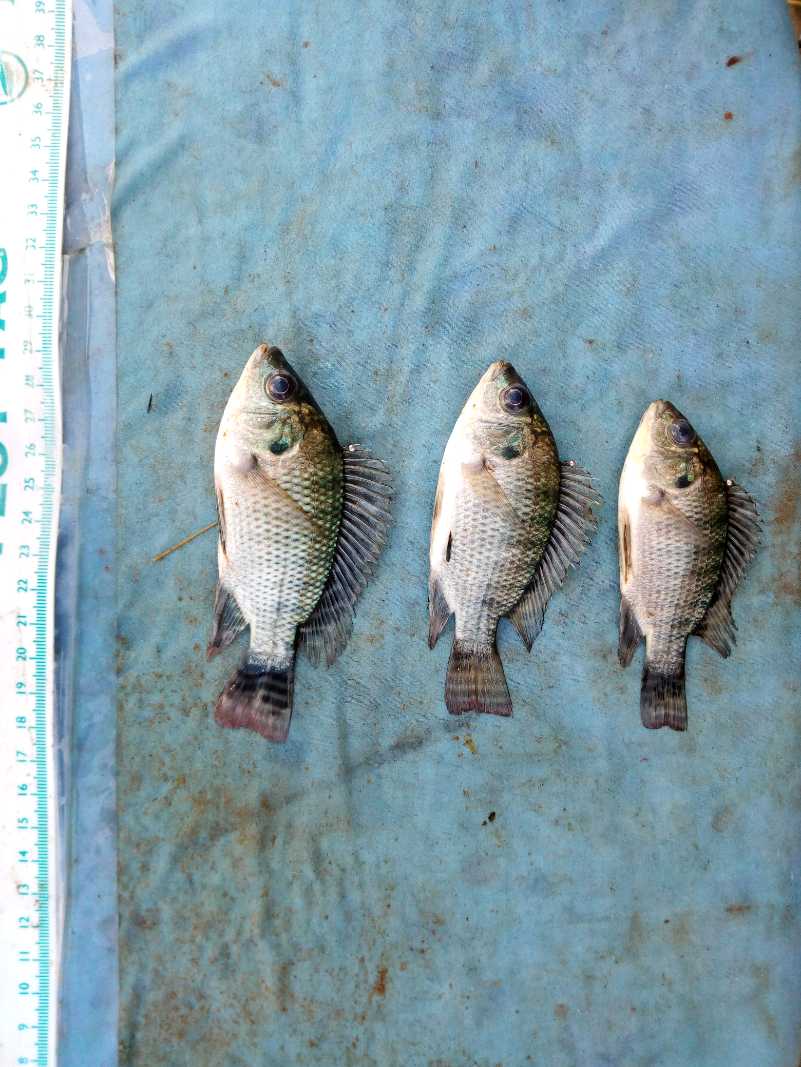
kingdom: Animalia
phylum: Chordata
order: Perciformes
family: Cichlidae
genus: Oreochromis
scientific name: Oreochromis niloticus
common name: Nile tilapia
